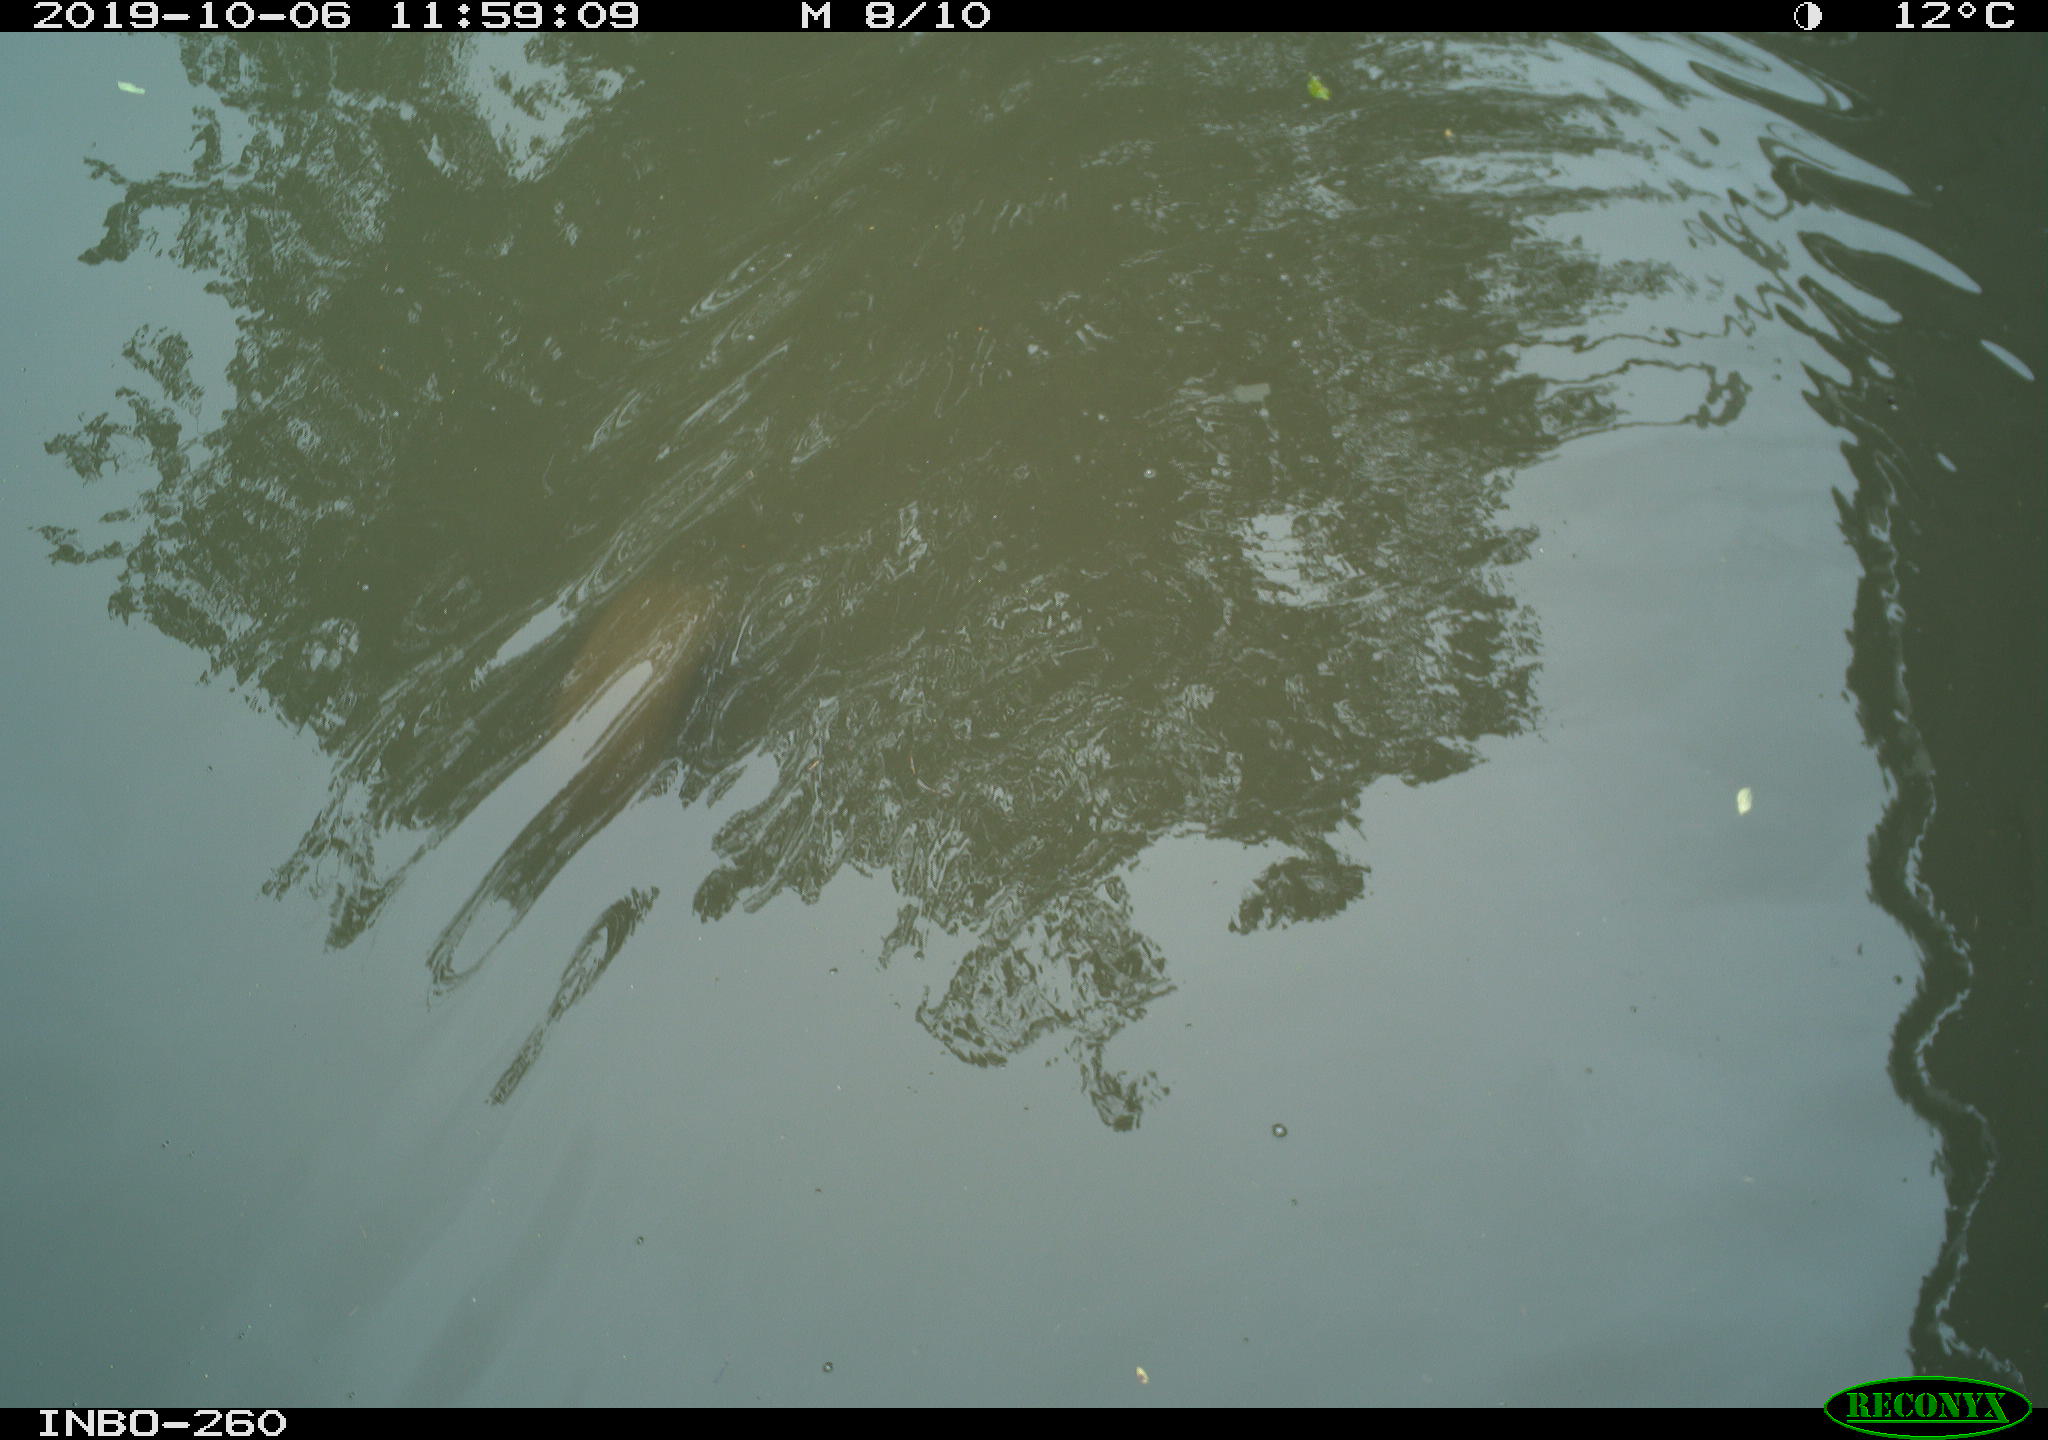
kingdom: Animalia
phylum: Chordata
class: Aves
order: Anseriformes
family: Anatidae
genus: Anas
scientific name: Anas platyrhynchos
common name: Mallard
